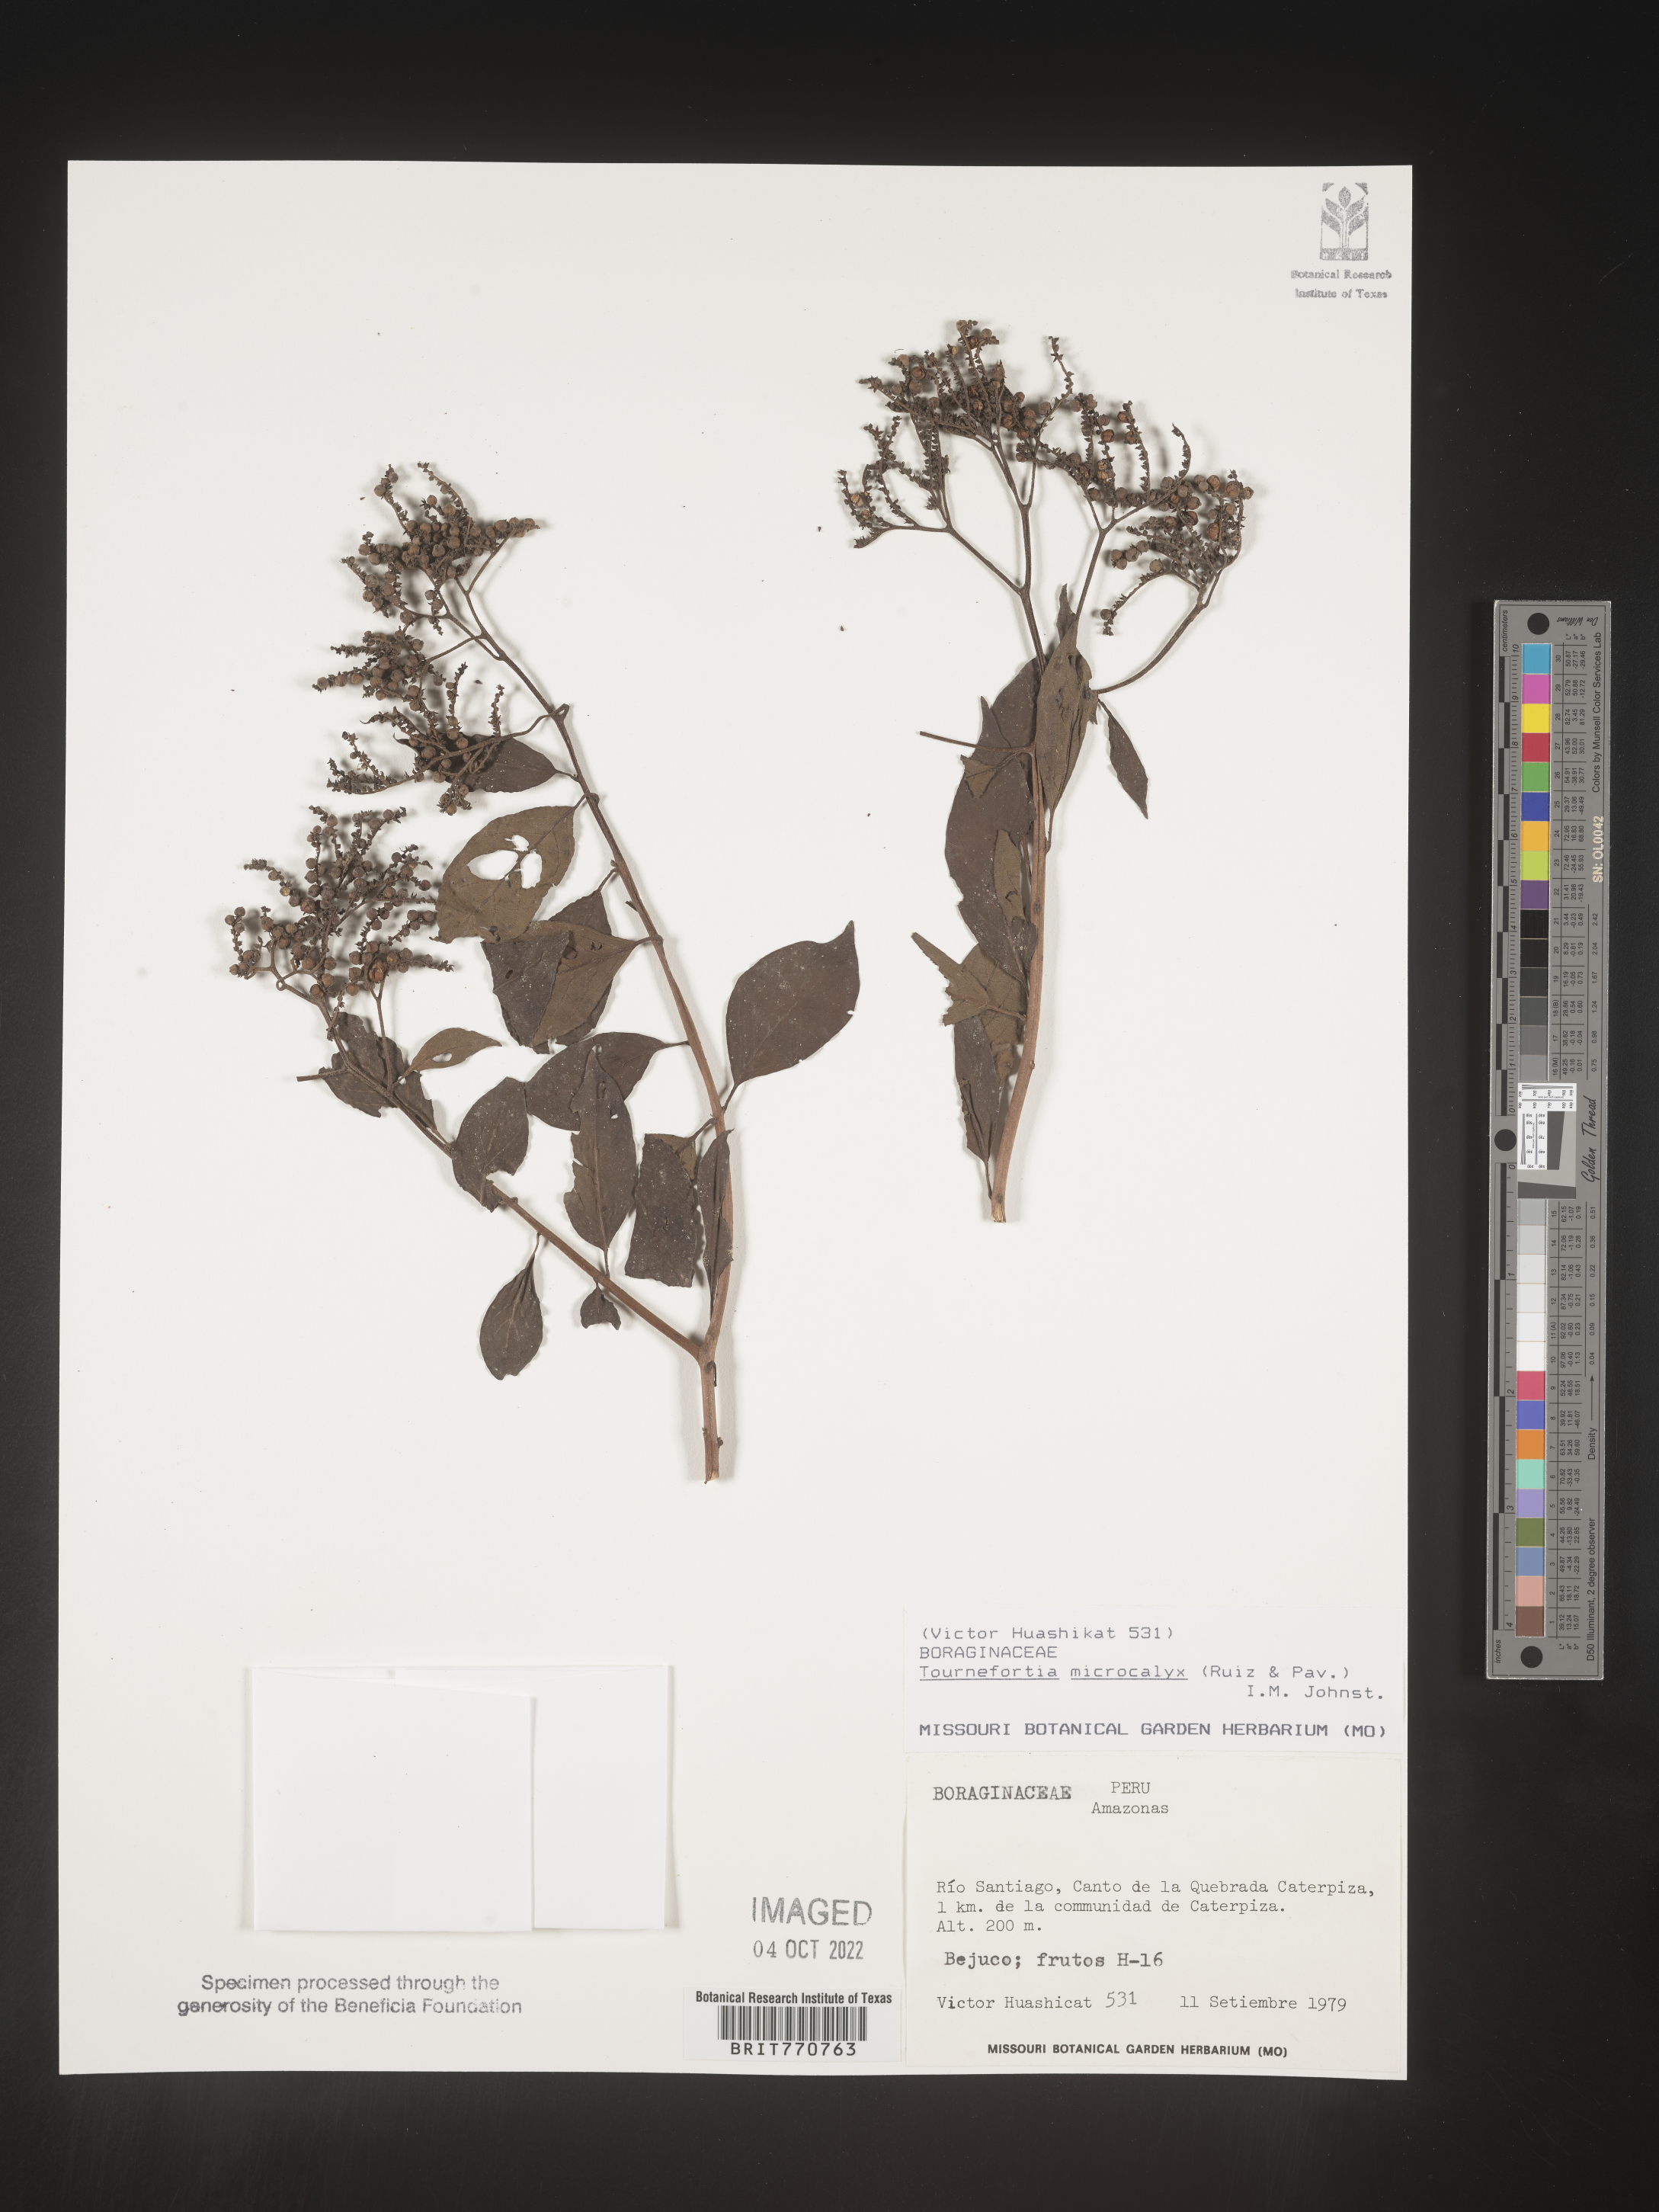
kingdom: Plantae
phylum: Tracheophyta
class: Magnoliopsida
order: Boraginales
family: Heliotropiaceae
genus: Tournefortia
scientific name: Tournefortia
